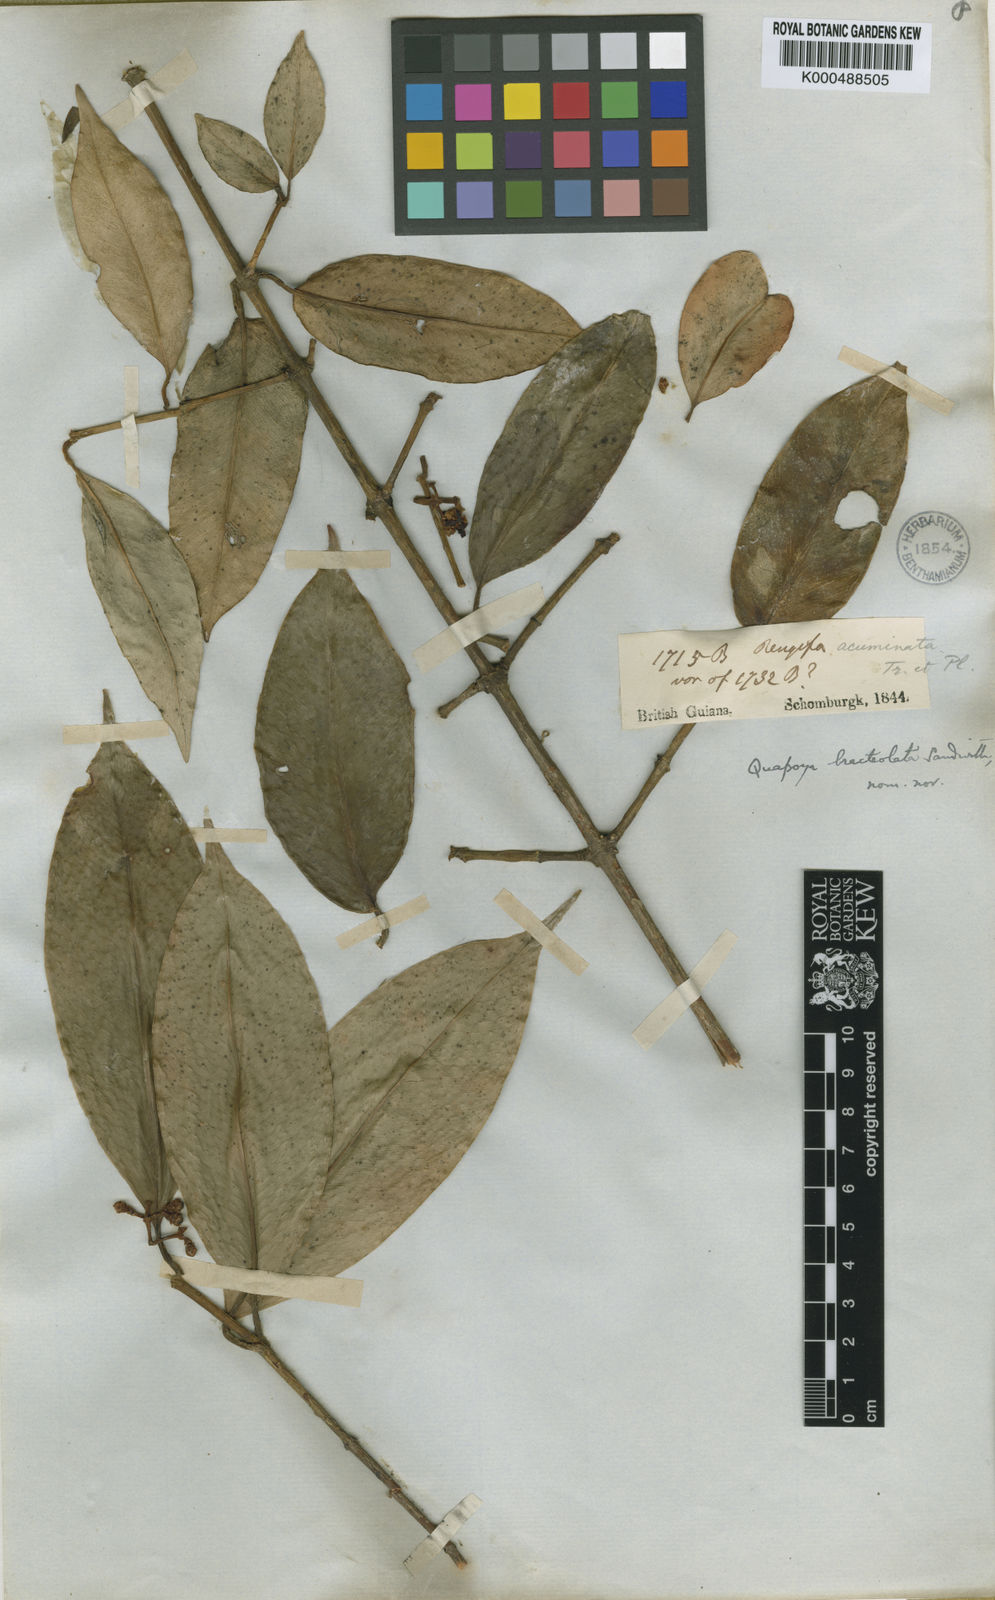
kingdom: Plantae
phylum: Tracheophyta
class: Magnoliopsida
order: Malpighiales
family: Clusiaceae
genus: Clusia
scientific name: Clusia hammeliana
